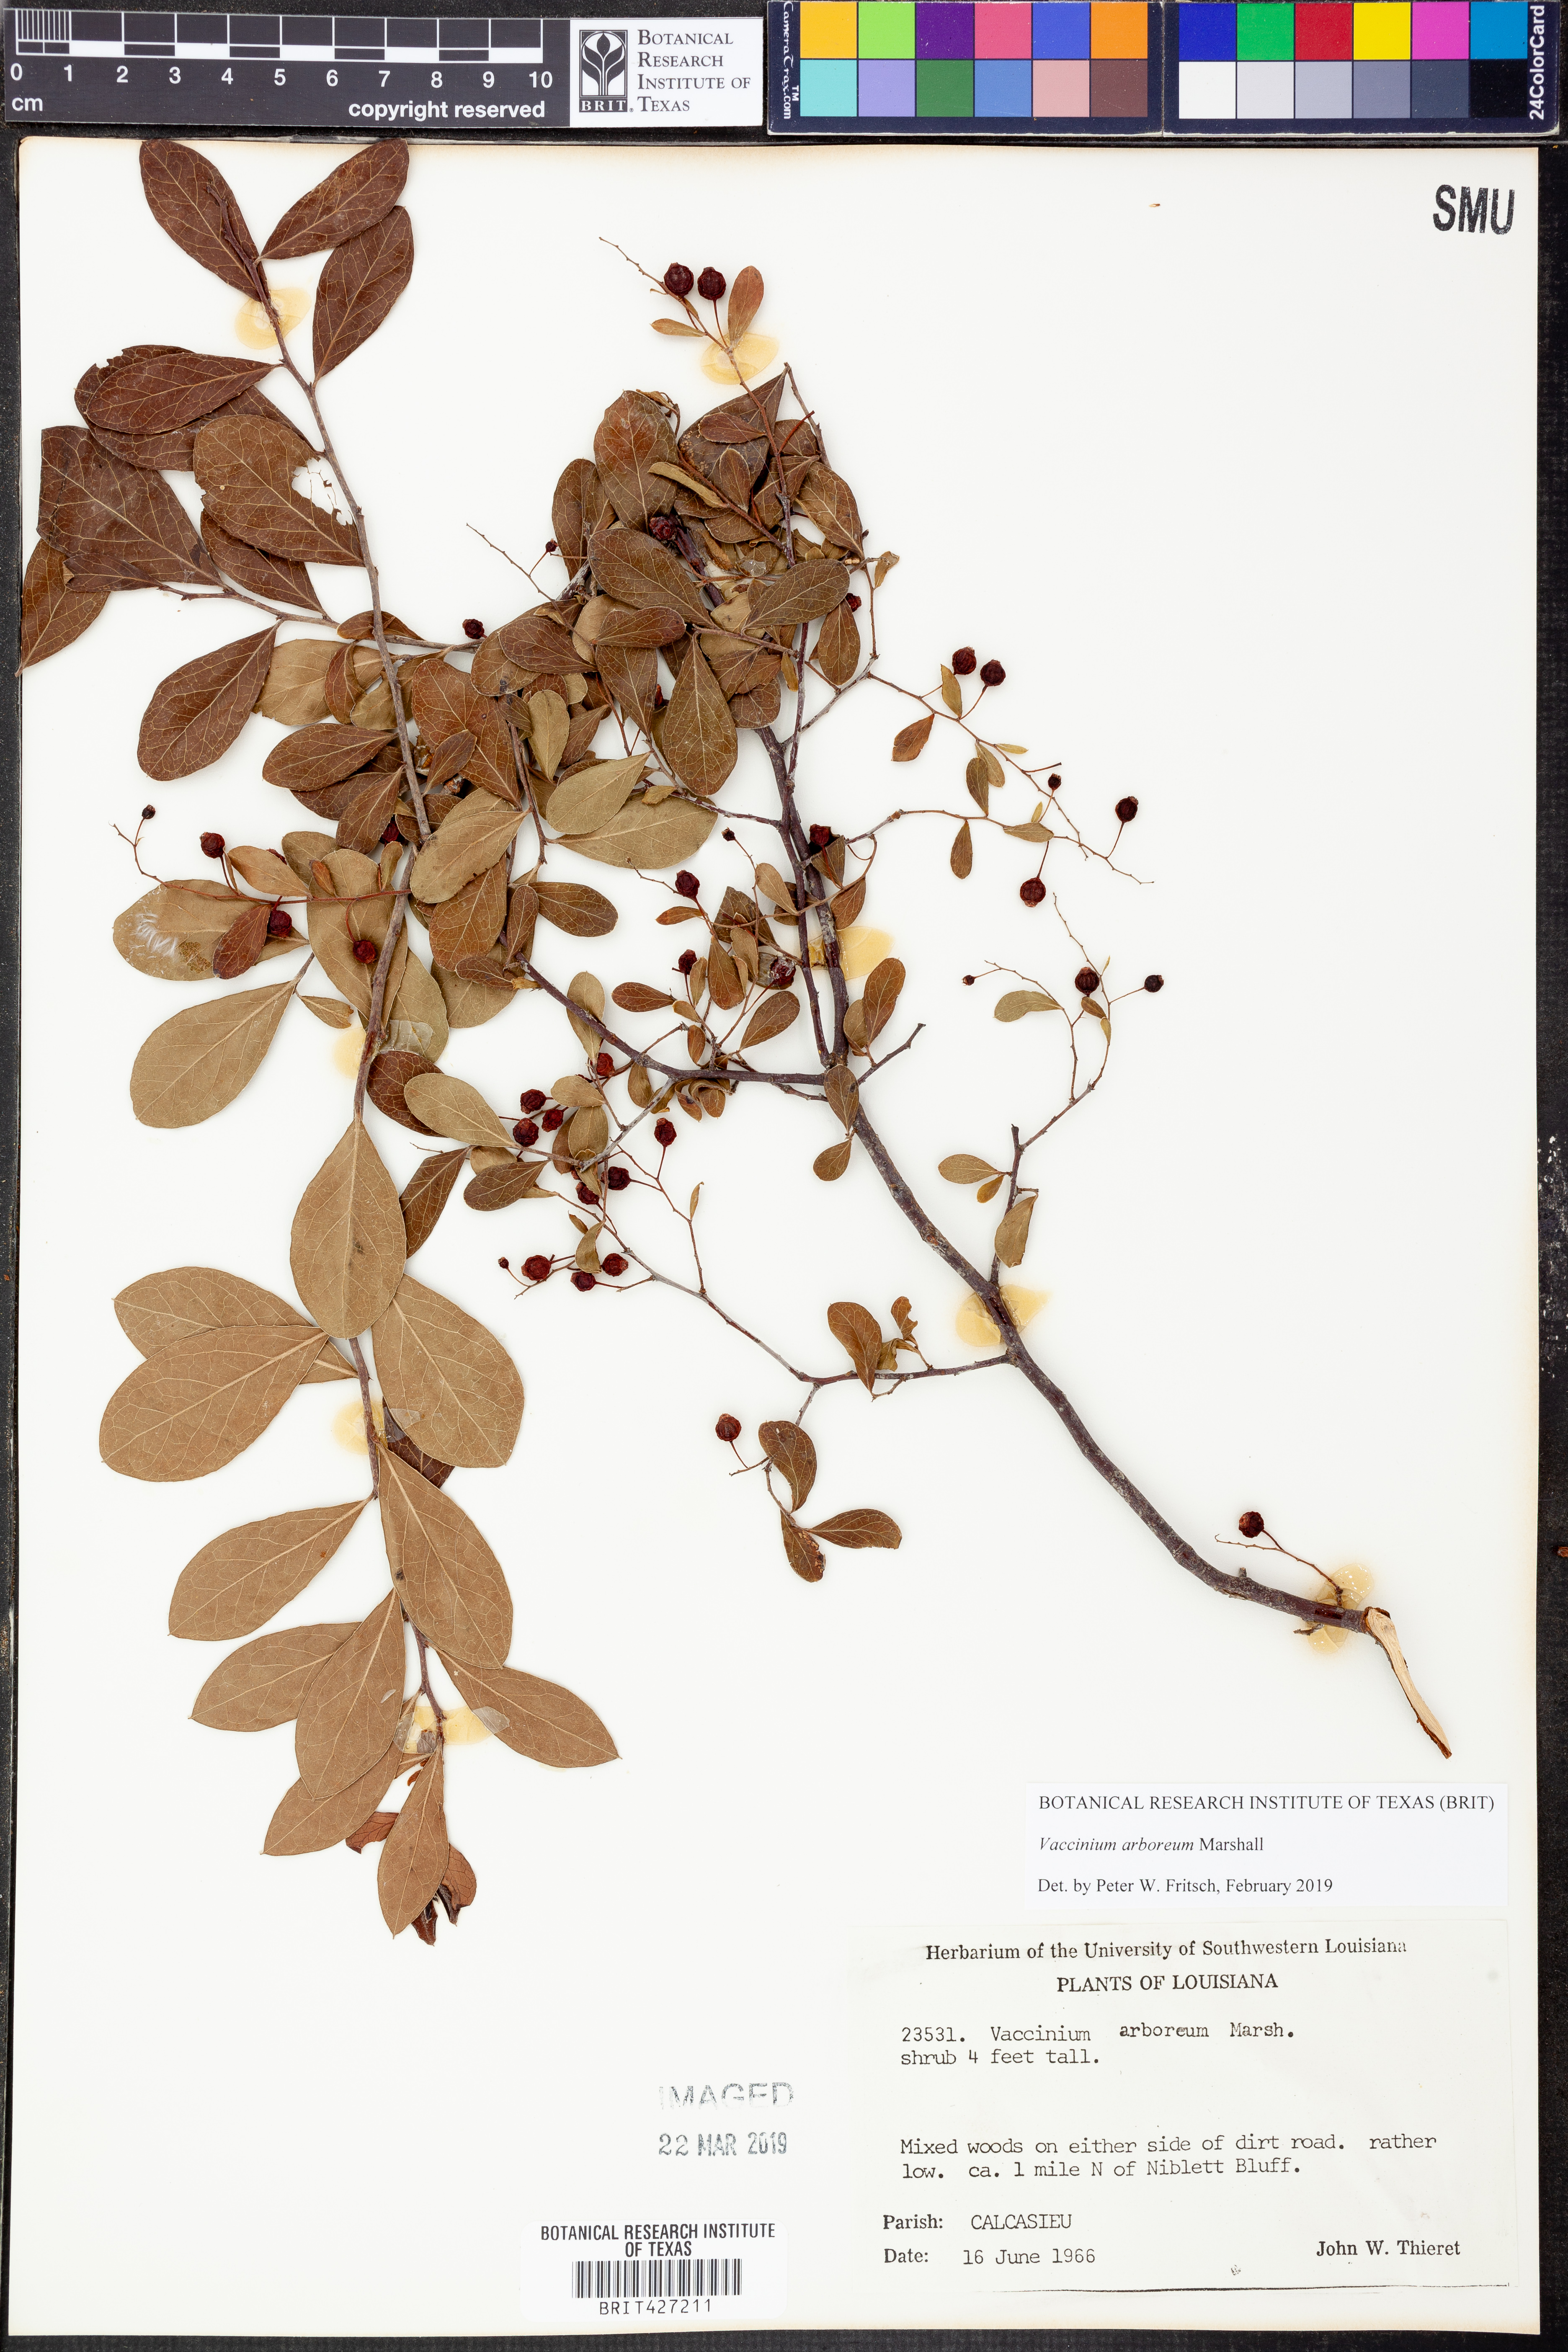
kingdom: Plantae
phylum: Tracheophyta
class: Magnoliopsida
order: Ericales
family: Ericaceae
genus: Vaccinium
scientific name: Vaccinium arboreum
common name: Farkleberry
